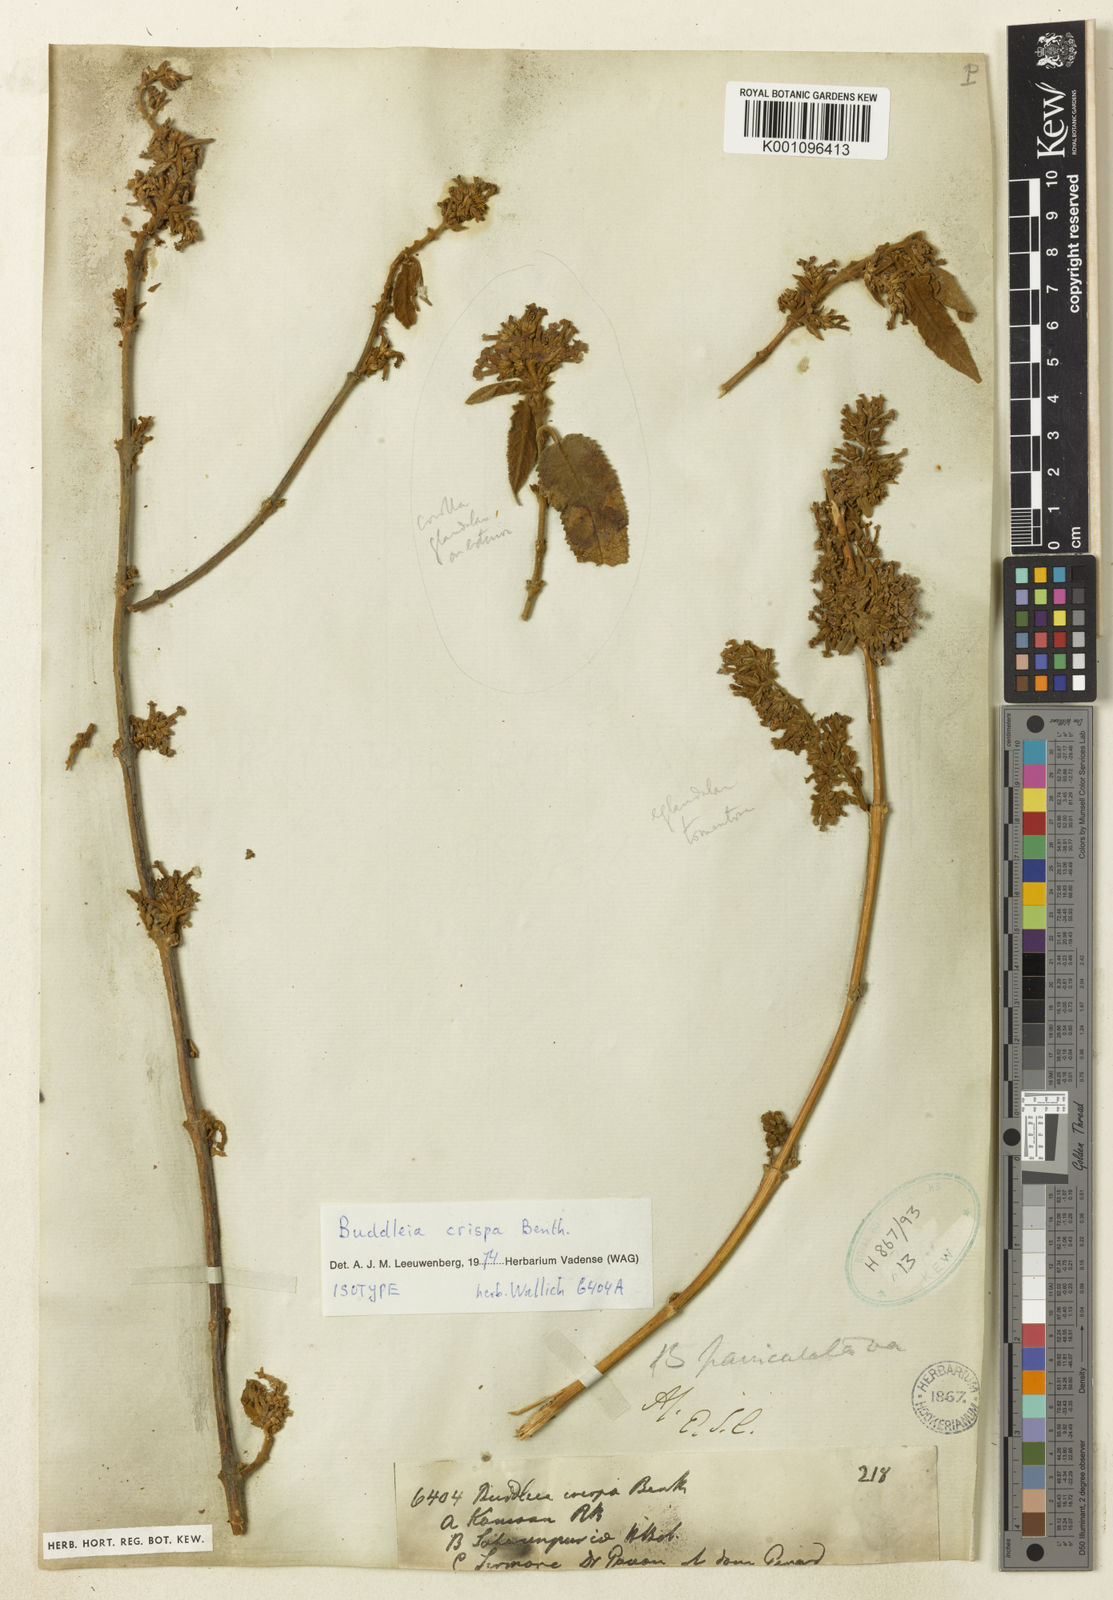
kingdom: Plantae
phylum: Tracheophyta
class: Magnoliopsida
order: Lamiales
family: Scrophulariaceae
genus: Buddleja
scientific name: Buddleja crispa
